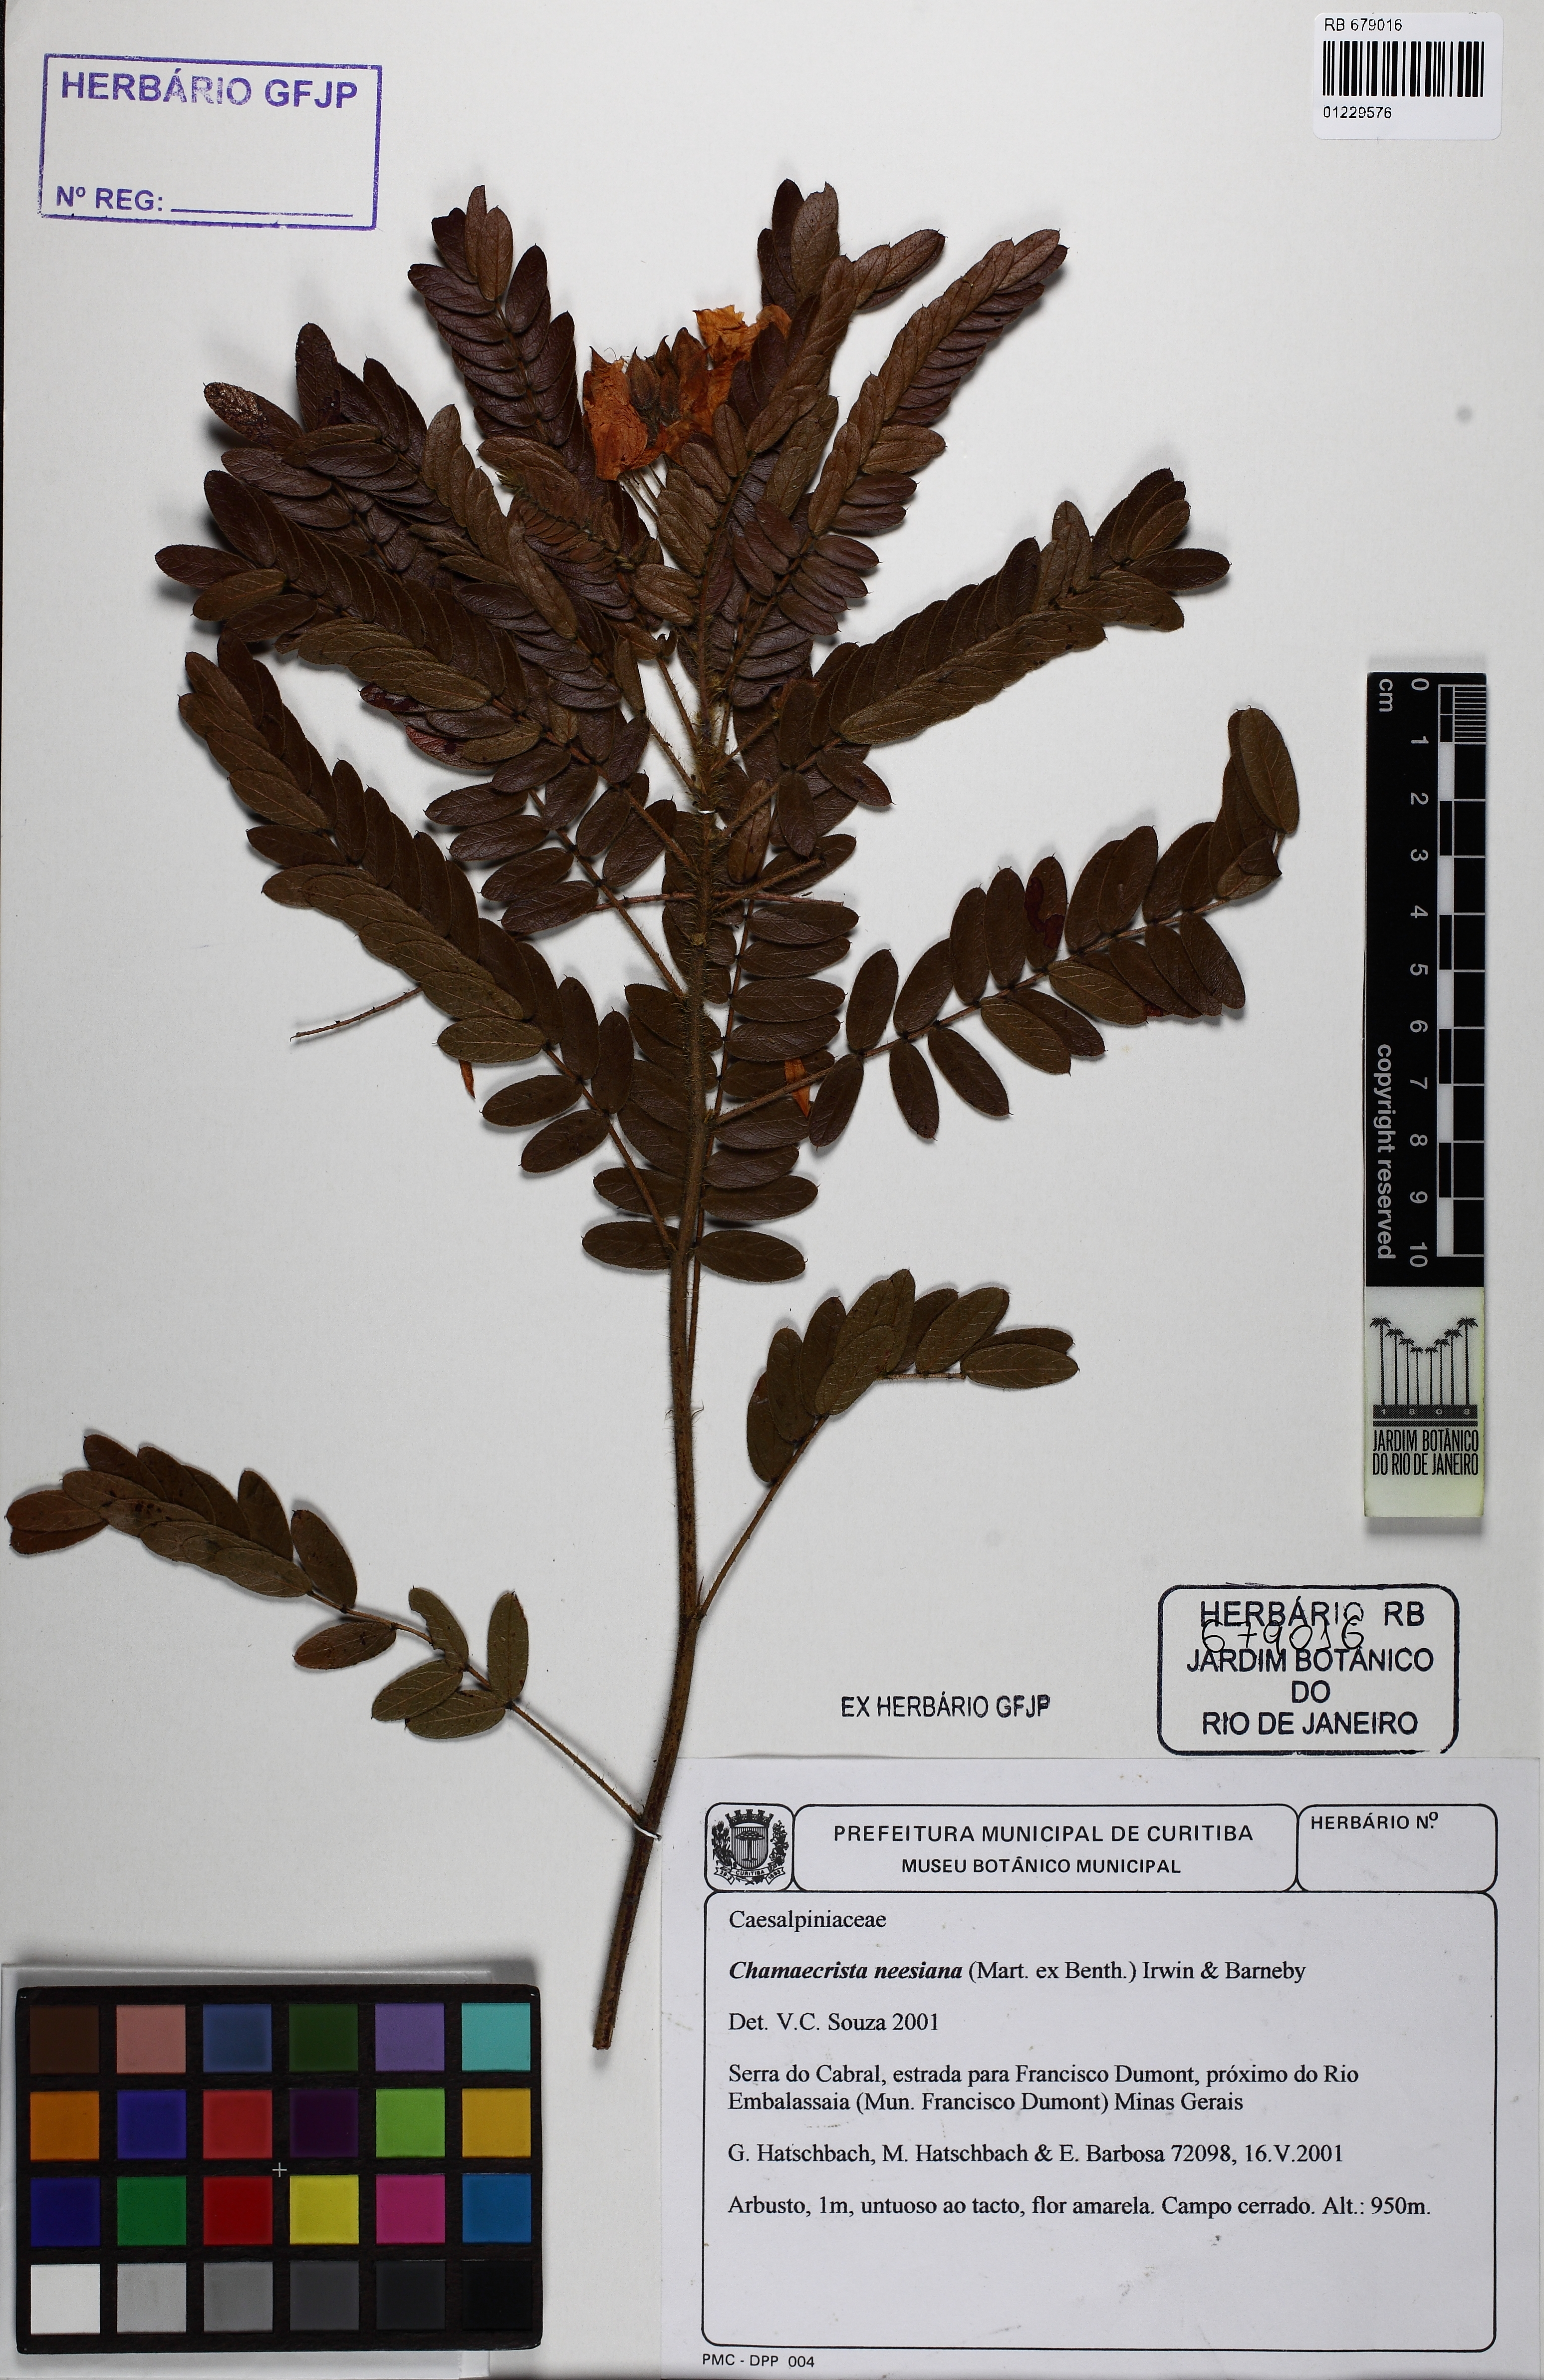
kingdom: Plantae
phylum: Tracheophyta
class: Magnoliopsida
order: Fabales
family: Fabaceae
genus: Chamaecrista
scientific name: Chamaecrista neesiana
